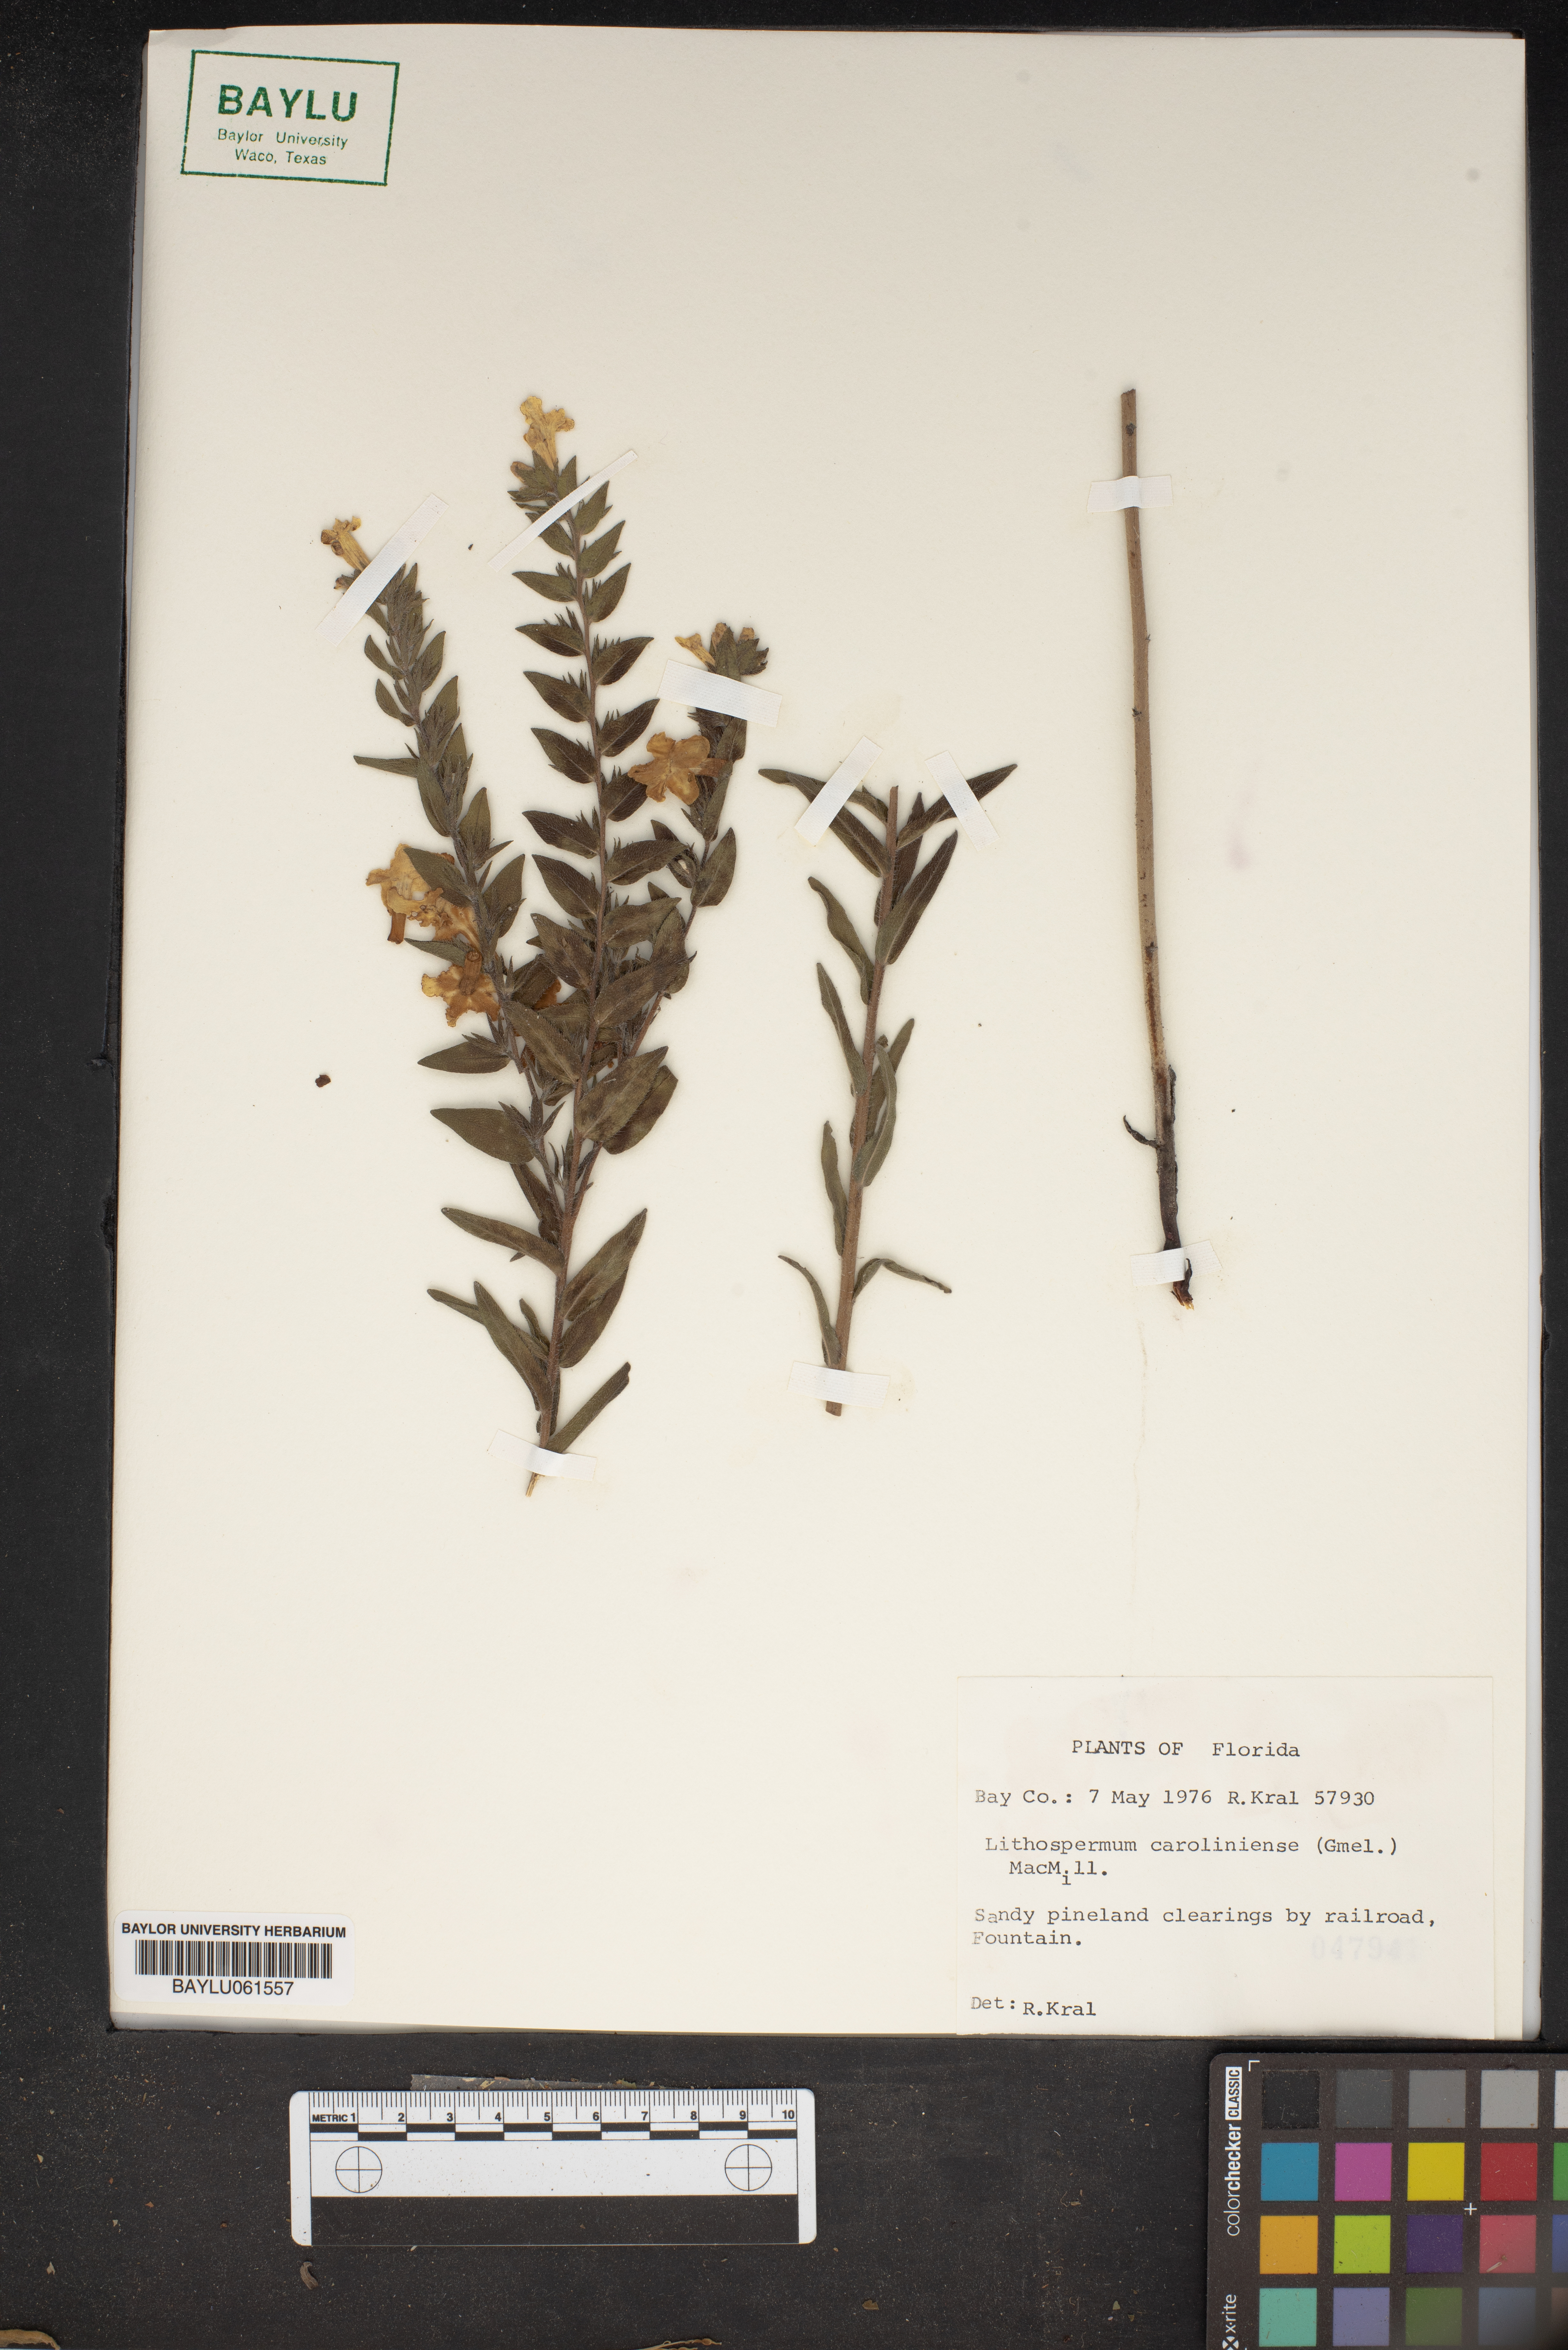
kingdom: Plantae
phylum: Tracheophyta
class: Magnoliopsida
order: Boraginales
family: Boraginaceae
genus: Lithospermum
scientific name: Lithospermum caroliniense
